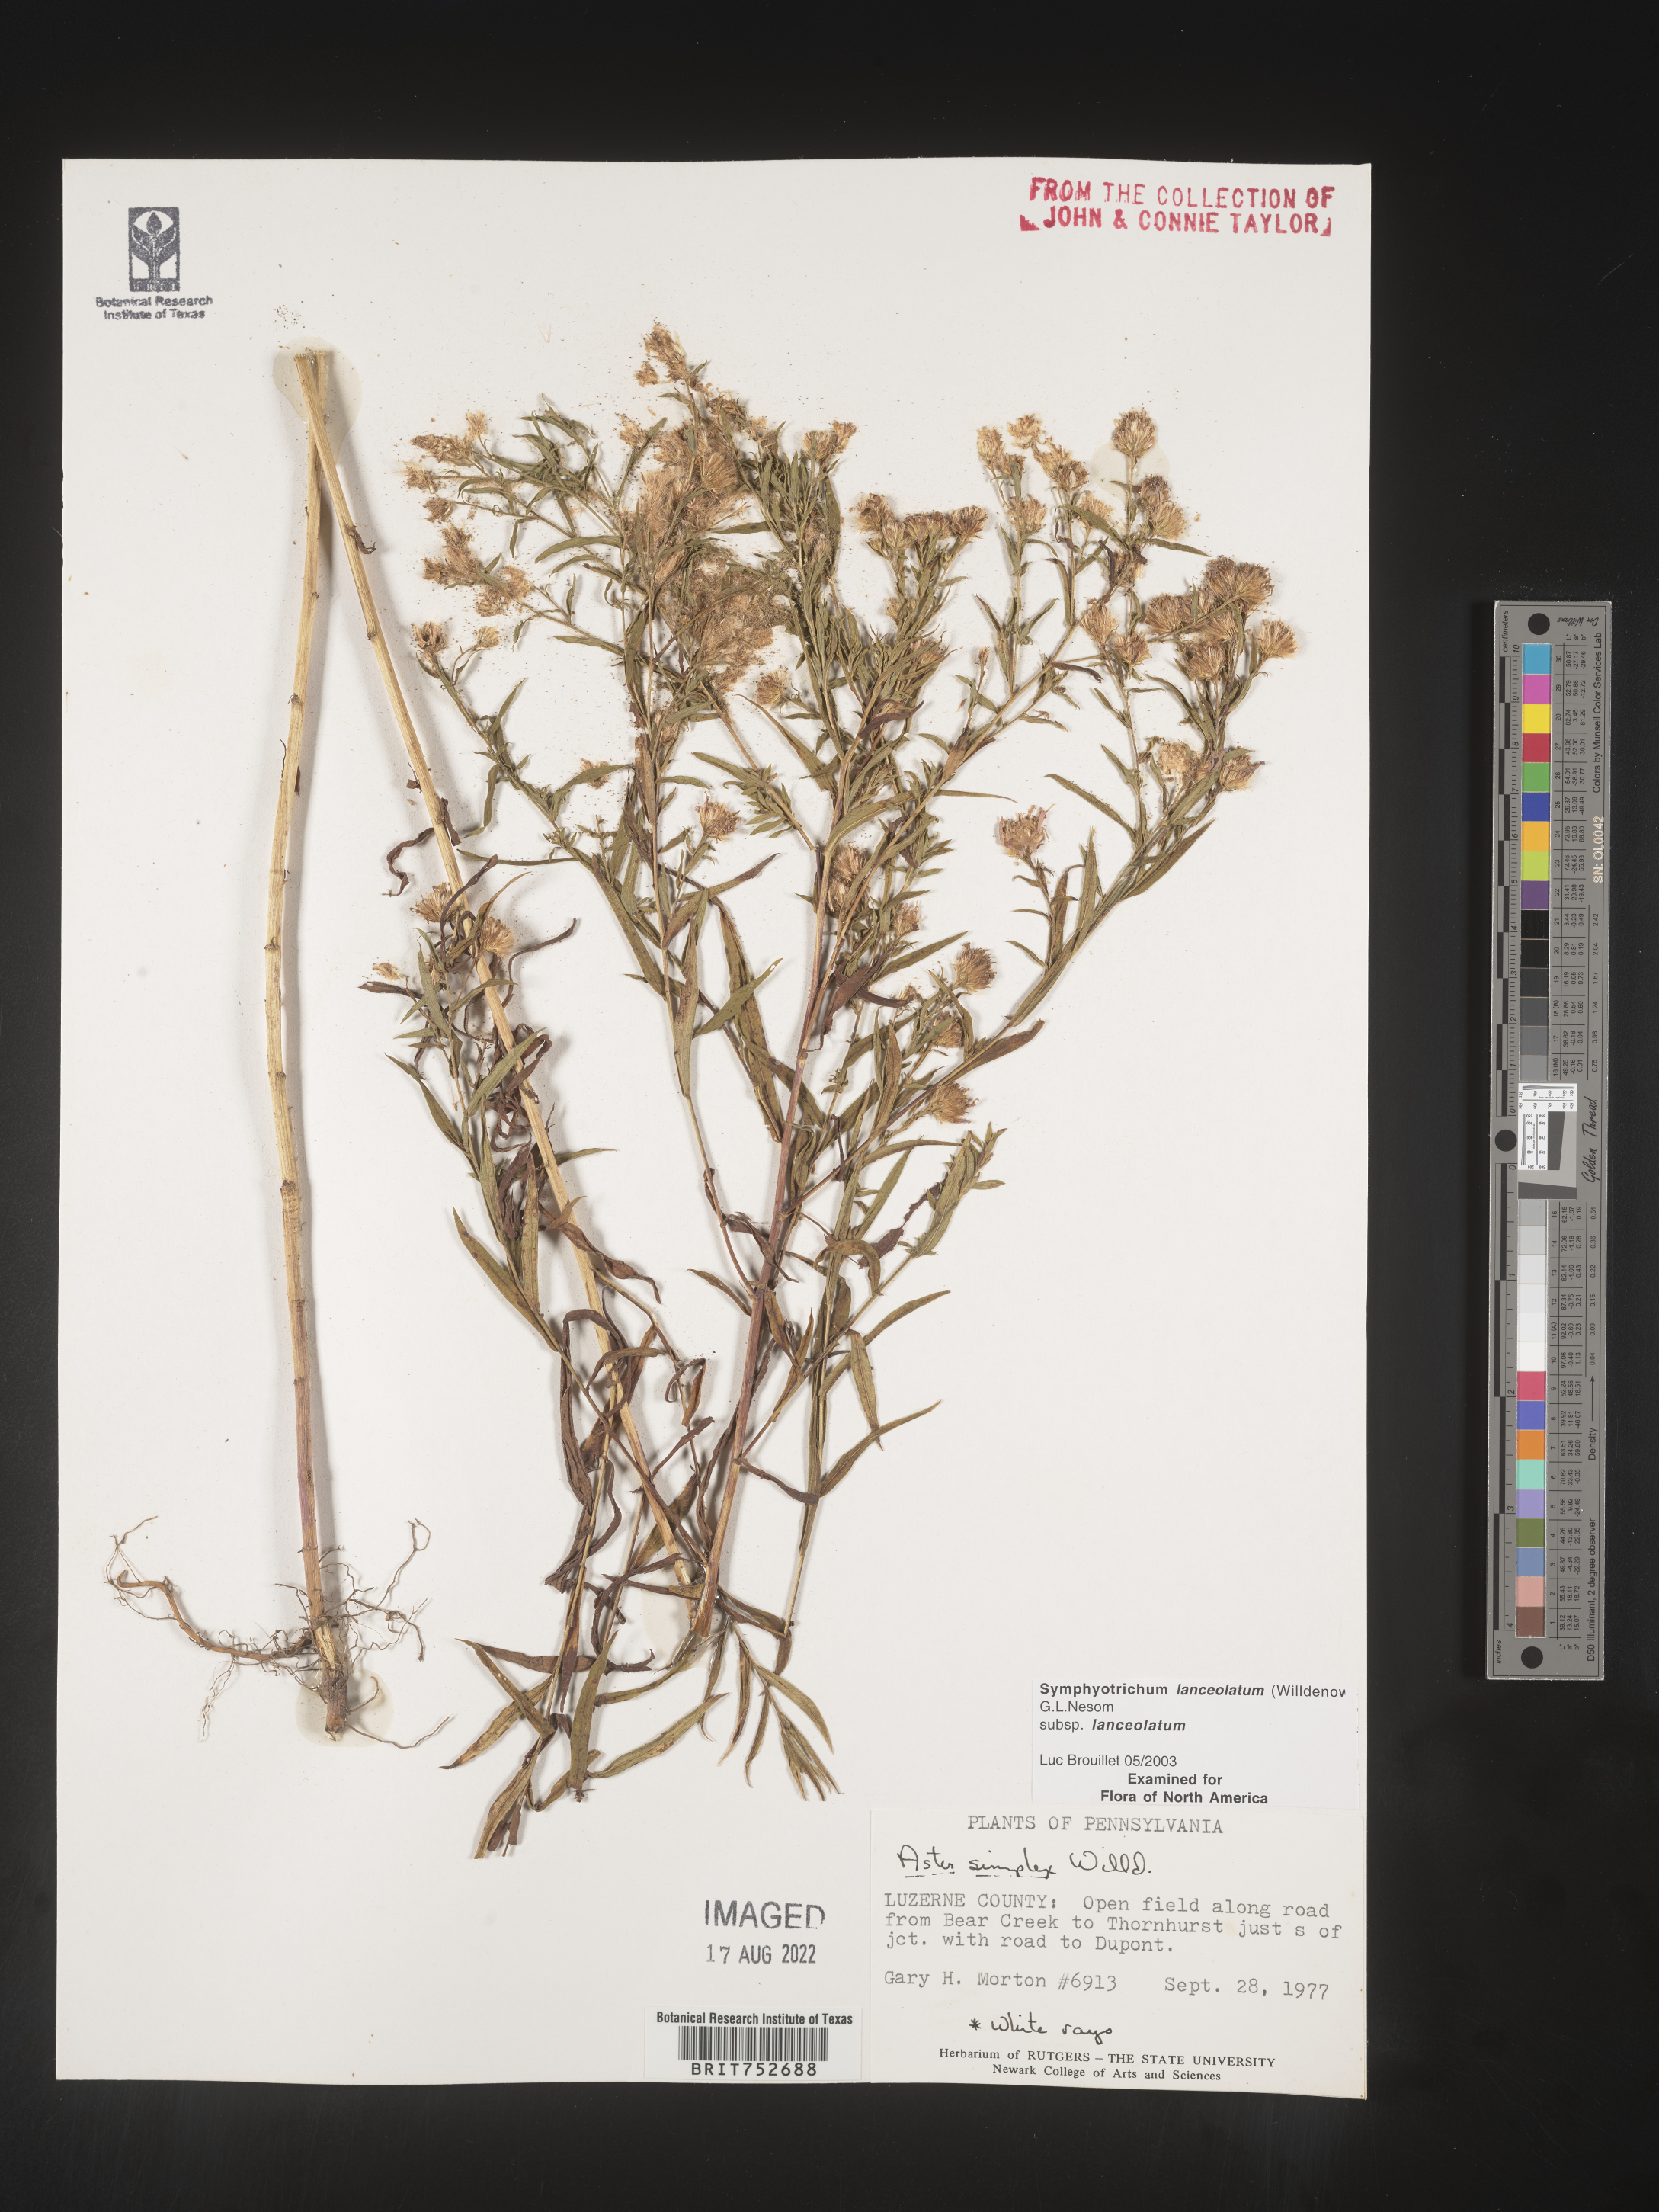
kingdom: Plantae
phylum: Tracheophyta
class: Magnoliopsida
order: Asterales
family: Asteraceae
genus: Symphyotrichum
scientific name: Symphyotrichum lanceolatum
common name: Panicled aster
